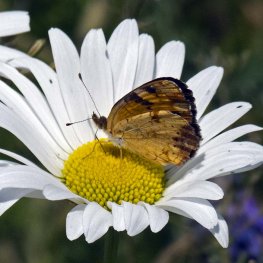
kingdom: Animalia
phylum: Arthropoda
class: Insecta
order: Lepidoptera
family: Nymphalidae
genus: Phyciodes
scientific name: Phyciodes tharos
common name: Northern Crescent
